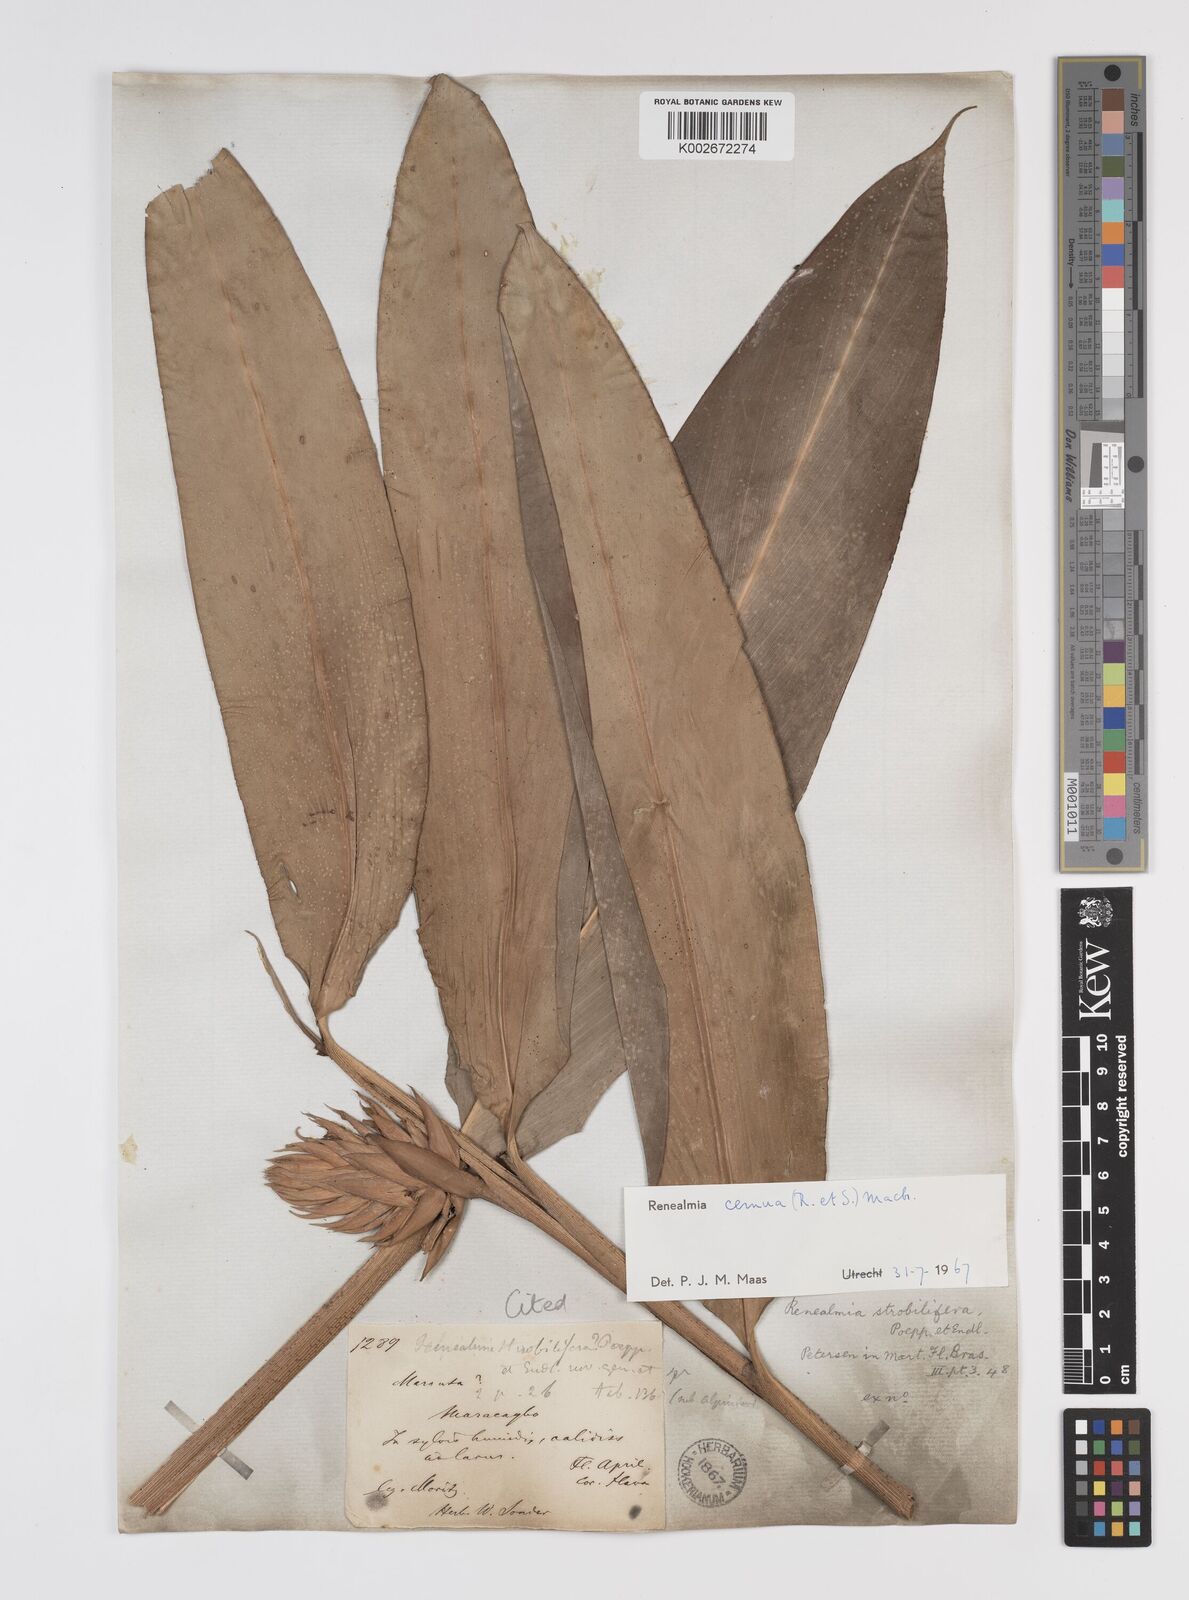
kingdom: Plantae
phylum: Tracheophyta
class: Liliopsida
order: Zingiberales
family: Zingiberaceae
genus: Renealmia
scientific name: Renealmia cernua
